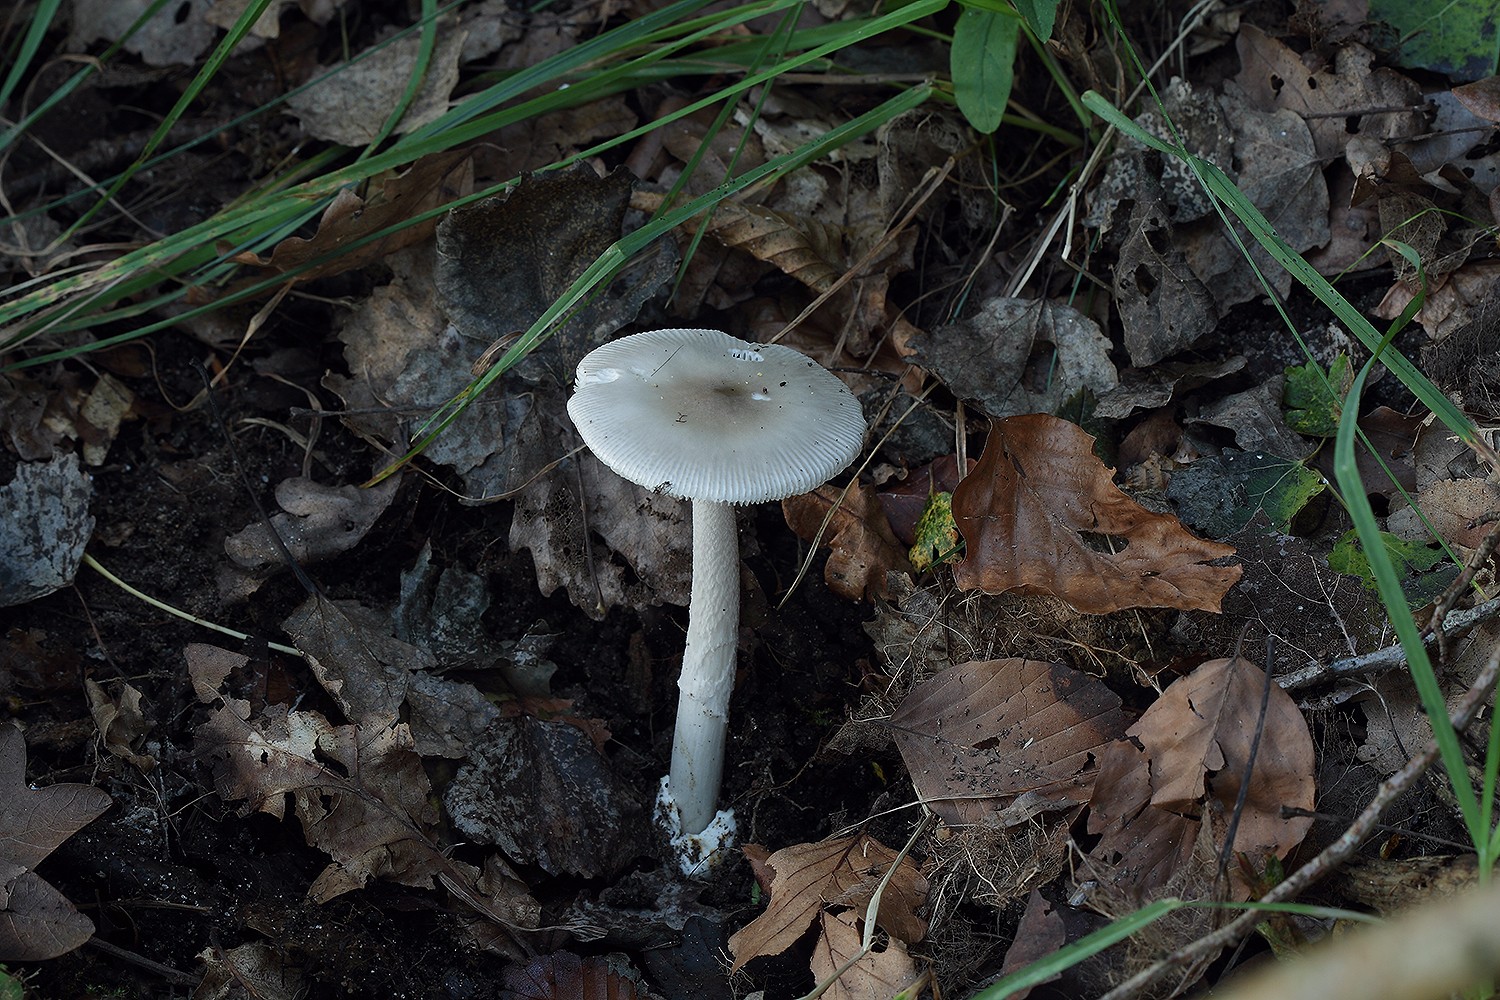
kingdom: Fungi
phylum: Basidiomycota
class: Agaricomycetes
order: Agaricales
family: Amanitaceae
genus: Amanita
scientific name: Amanita simulans
